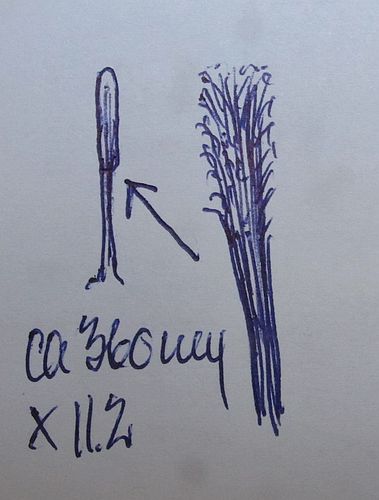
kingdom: Fungi
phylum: Ascomycota
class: Sordariomycetes
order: Xylariales
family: Diatrypaceae
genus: Phaeoisaria
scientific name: Phaeoisaria clavulata
